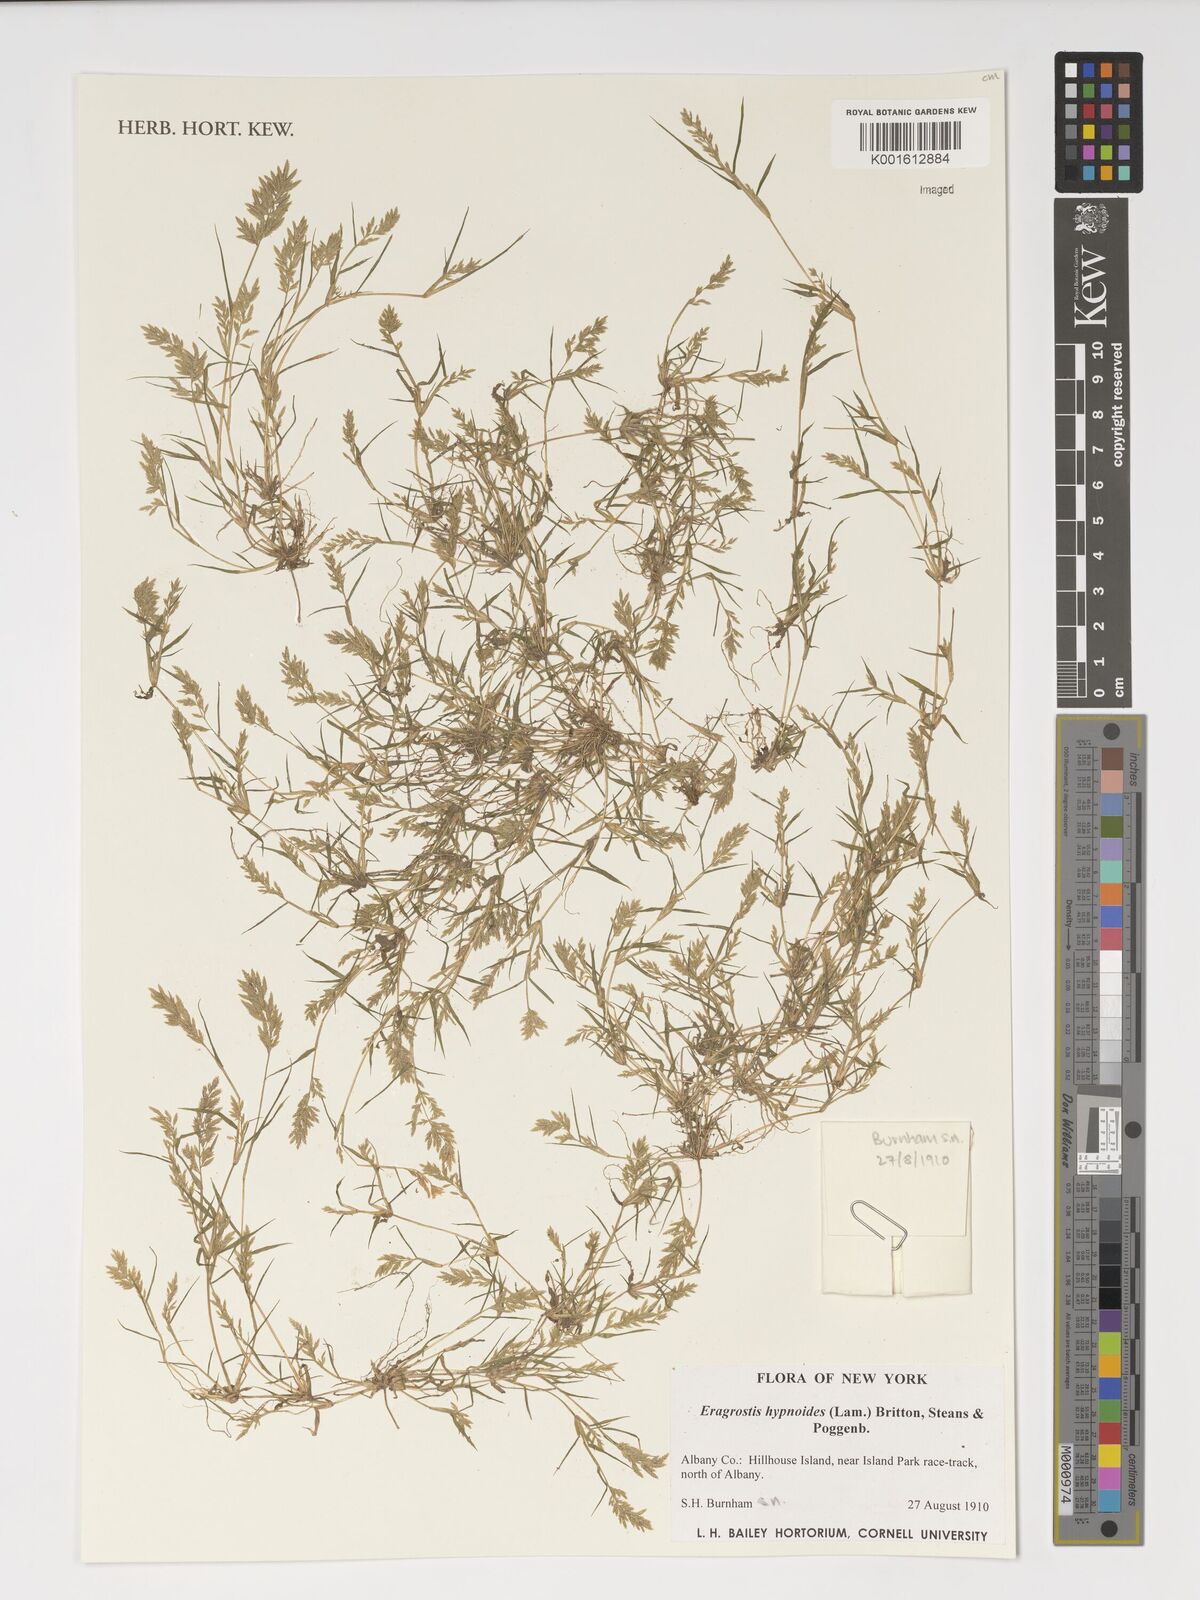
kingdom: Plantae
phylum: Tracheophyta
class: Liliopsida
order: Poales
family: Poaceae
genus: Eragrostis
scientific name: Eragrostis hypnoides
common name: Creeping love grass
